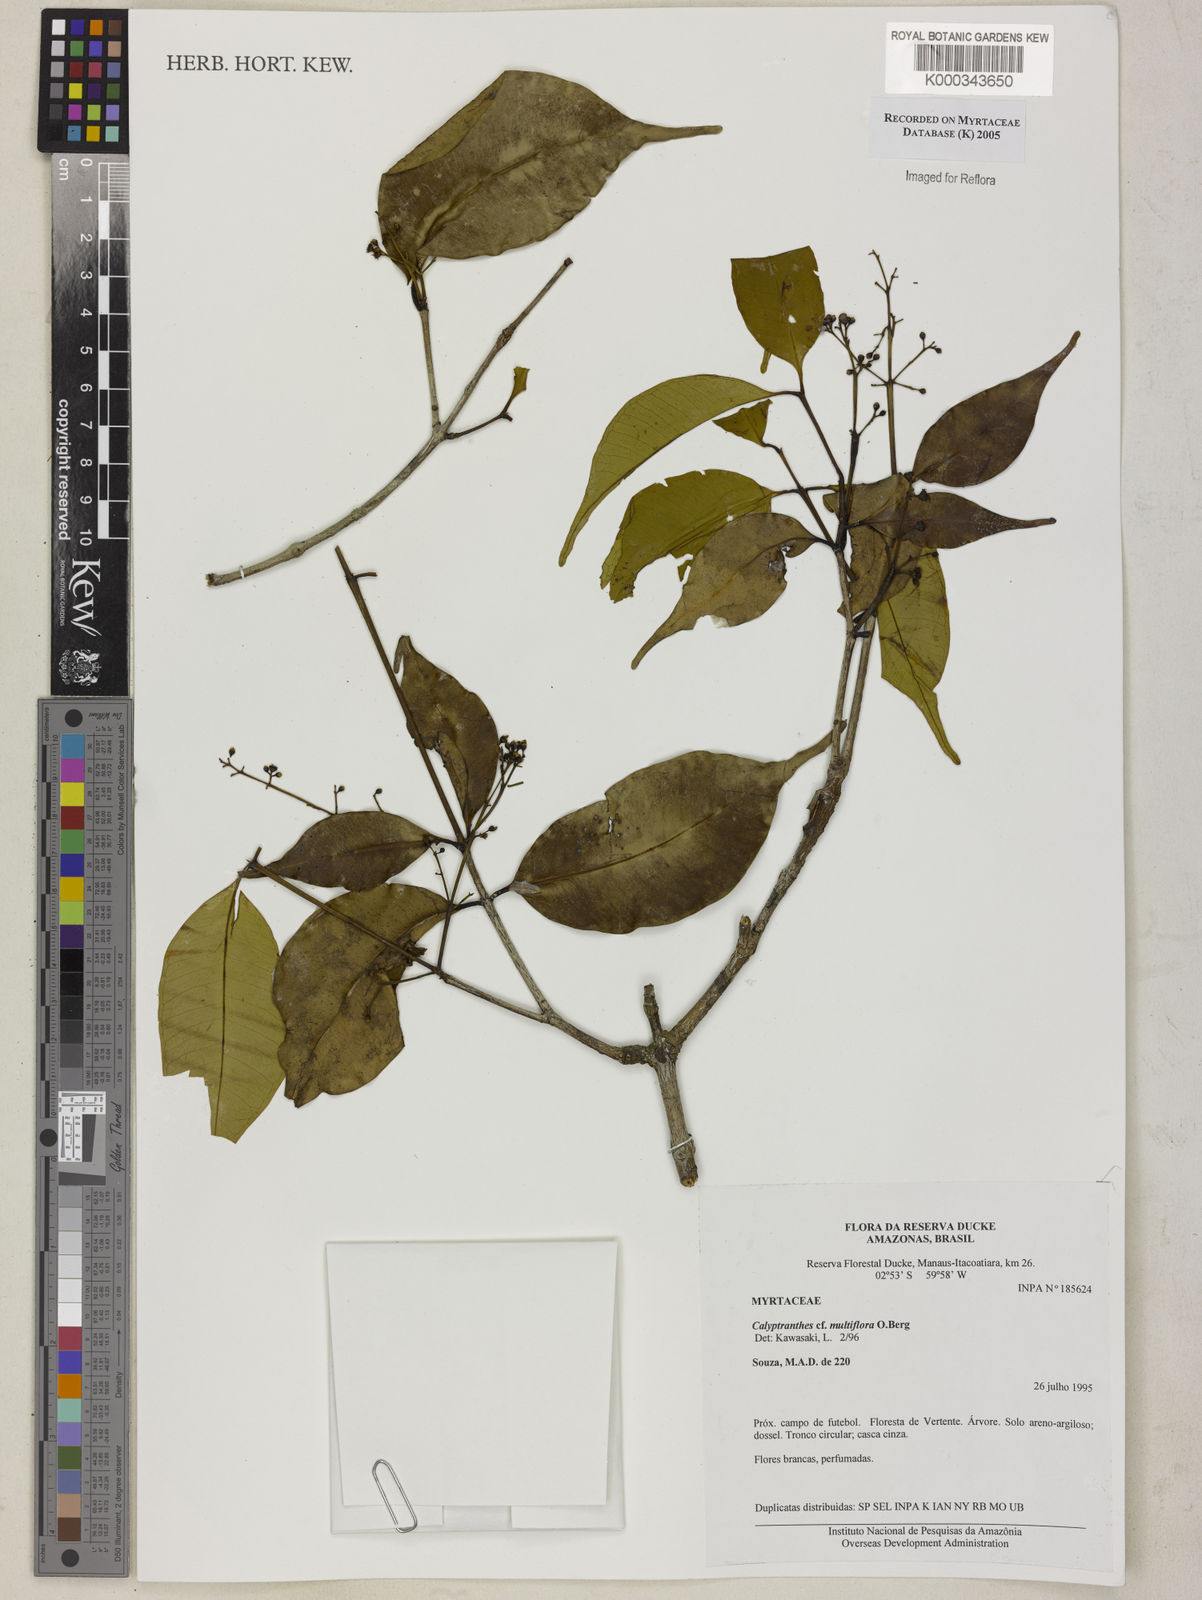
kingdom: Plantae
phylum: Tracheophyta
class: Magnoliopsida
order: Myrtales
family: Myrtaceae
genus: Myrcia
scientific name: Myrcia aulomyrcioides
